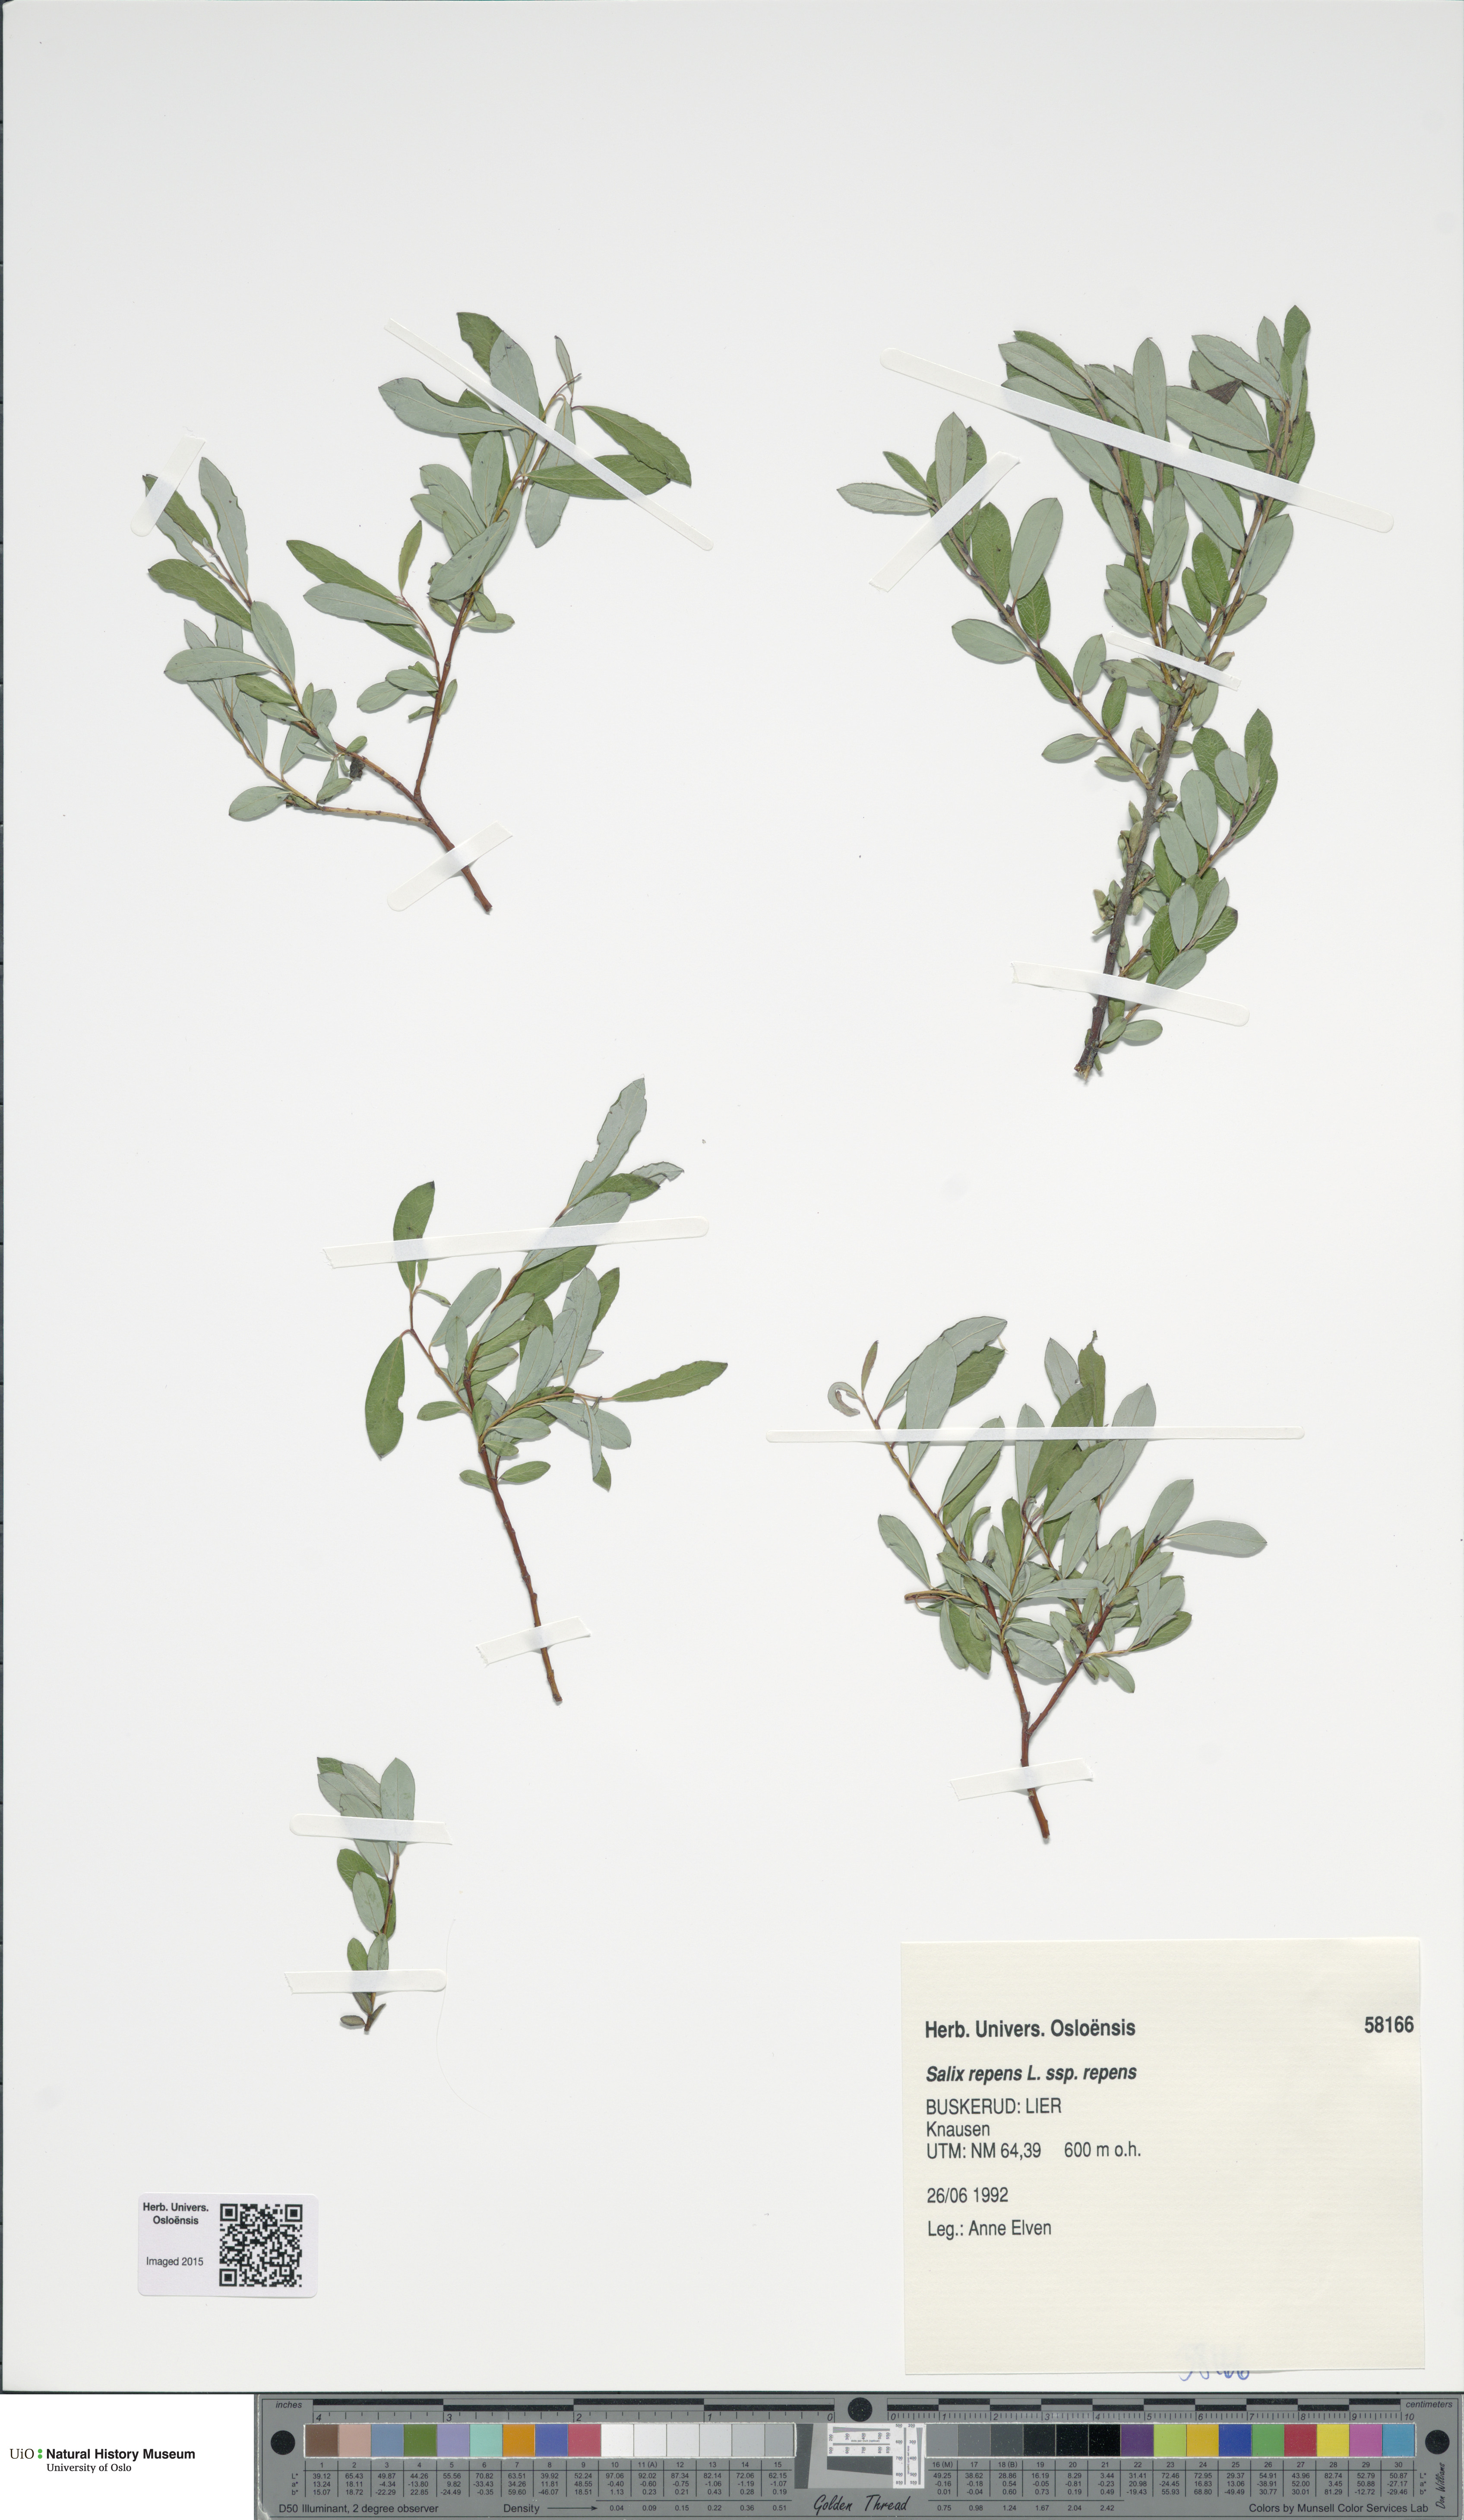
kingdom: Plantae
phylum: Tracheophyta
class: Magnoliopsida
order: Malpighiales
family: Salicaceae
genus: Salix
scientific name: Salix repens
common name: Creeping willow
